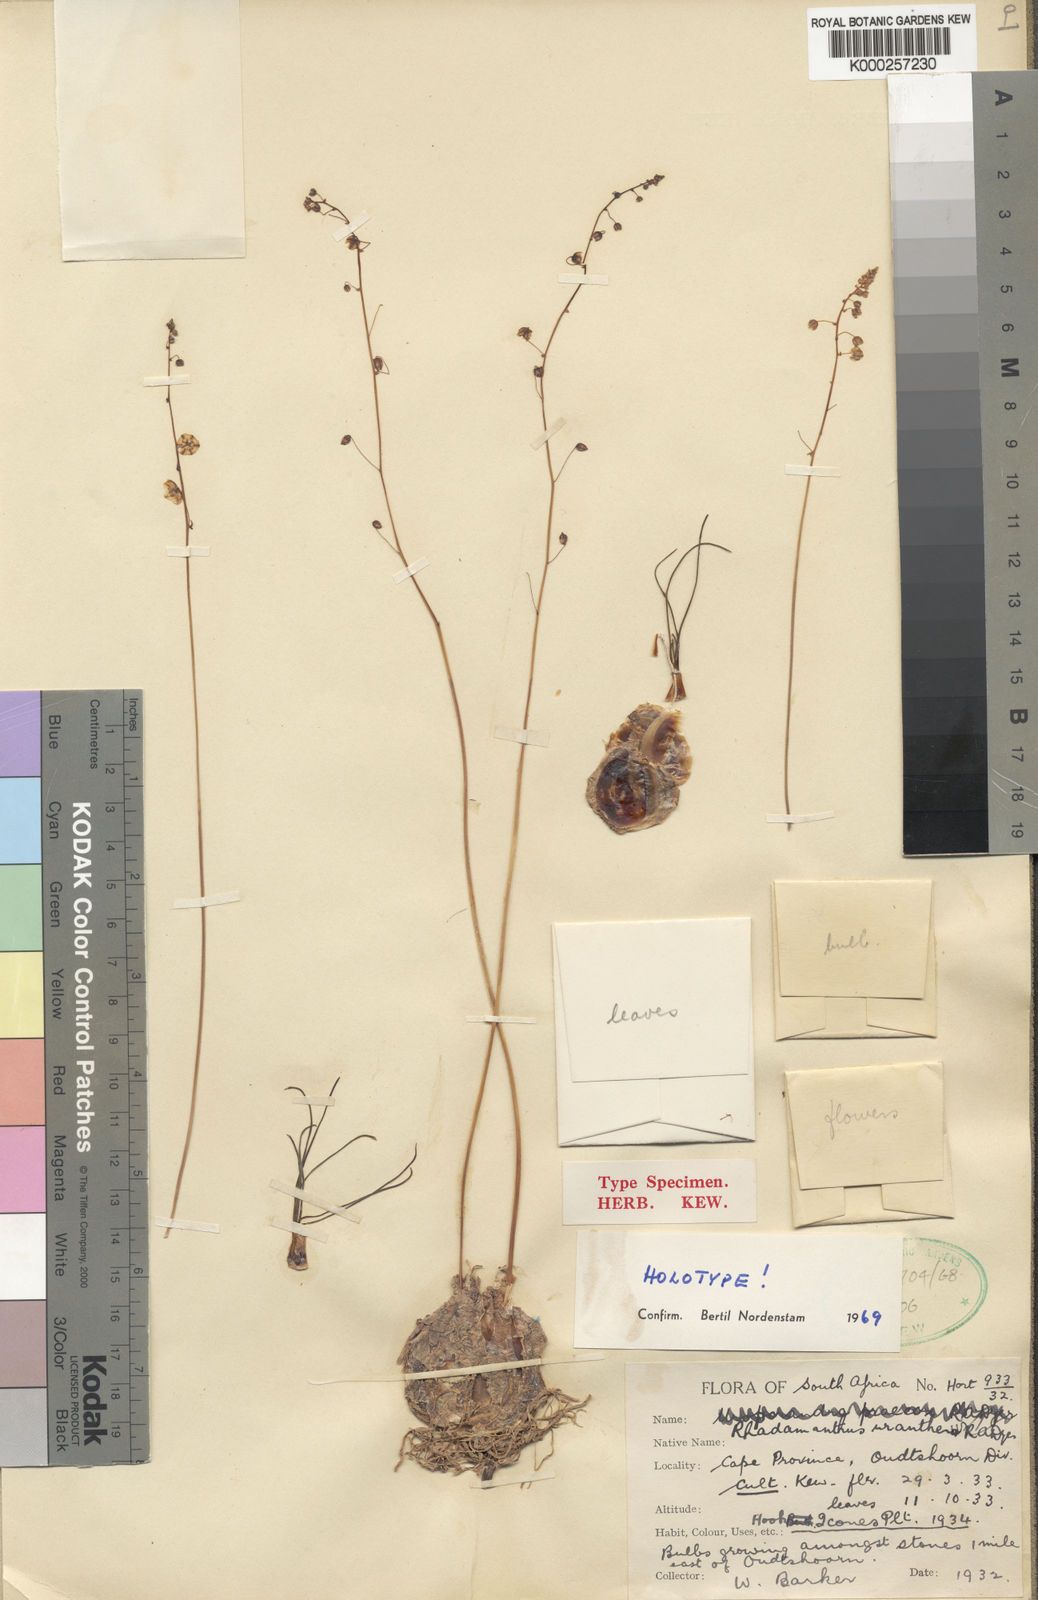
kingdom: Plantae
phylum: Tracheophyta
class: Liliopsida
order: Asparagales
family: Asparagaceae
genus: Drimia
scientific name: Drimia uranthera
